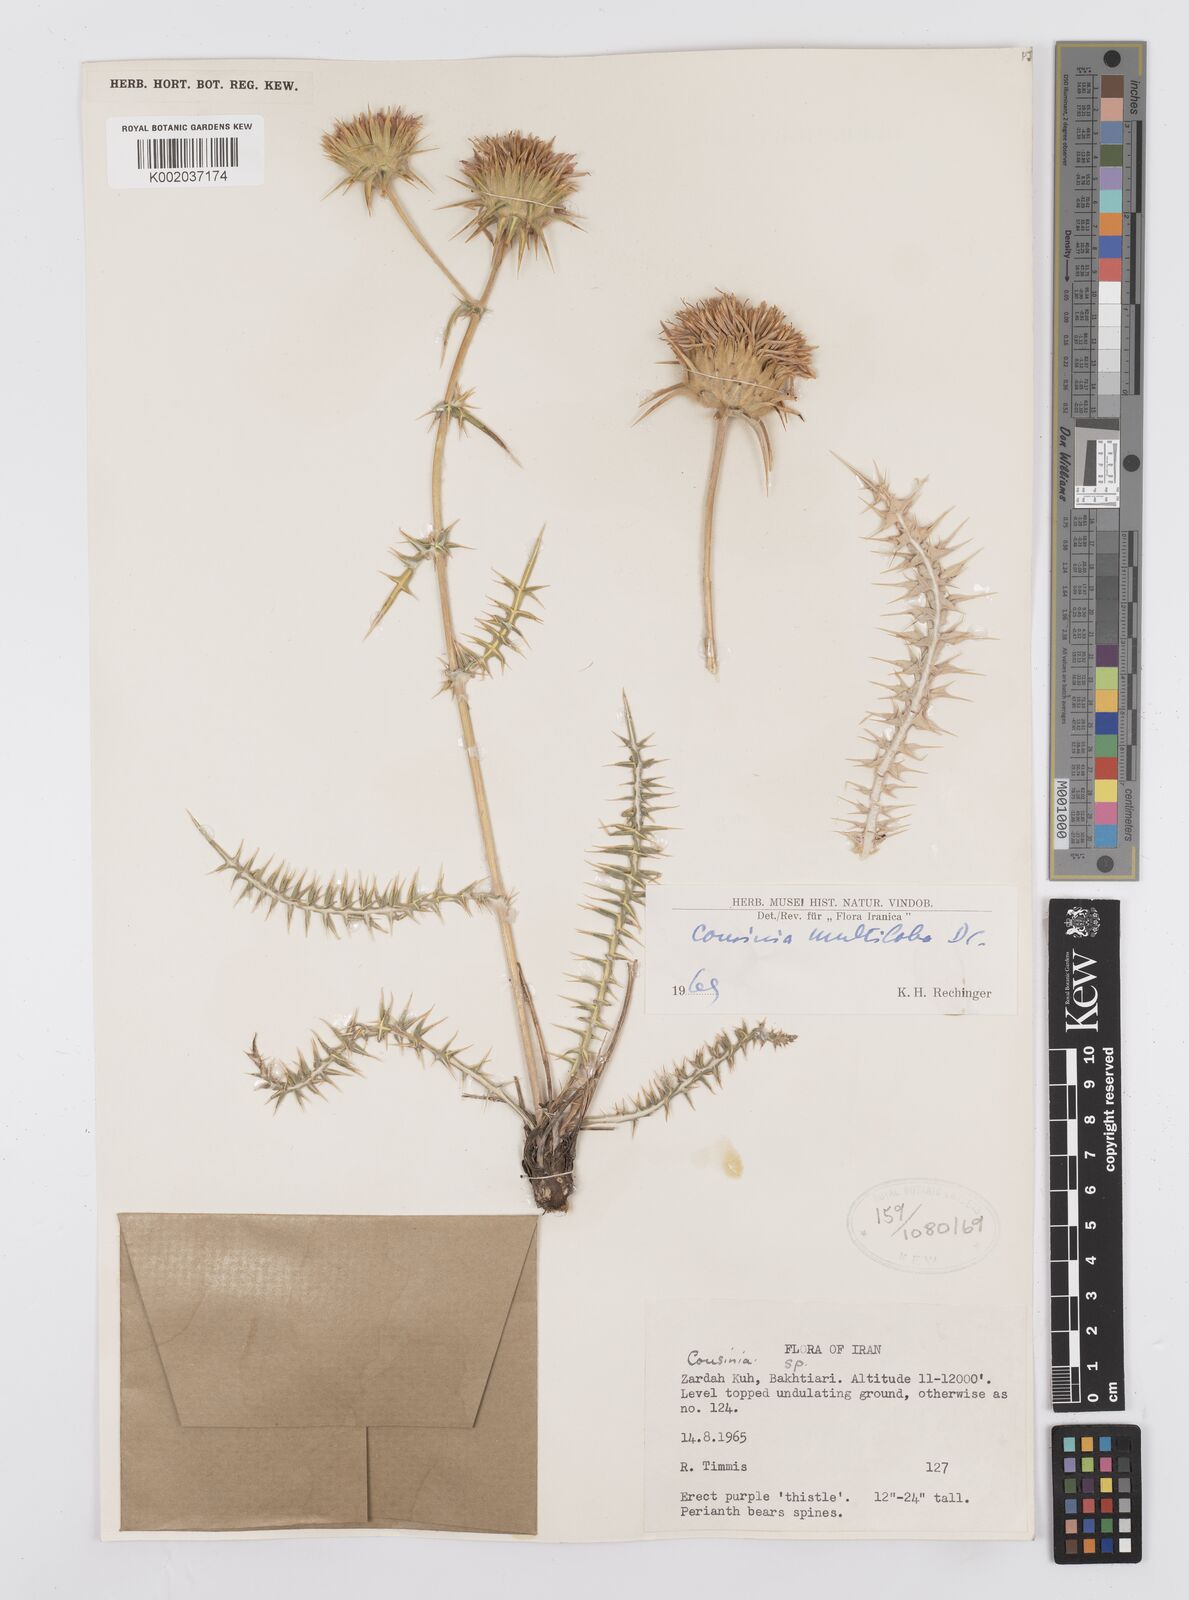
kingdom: Plantae
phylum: Tracheophyta
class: Magnoliopsida
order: Asterales
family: Asteraceae
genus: Cousinia
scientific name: Cousinia multiloba
